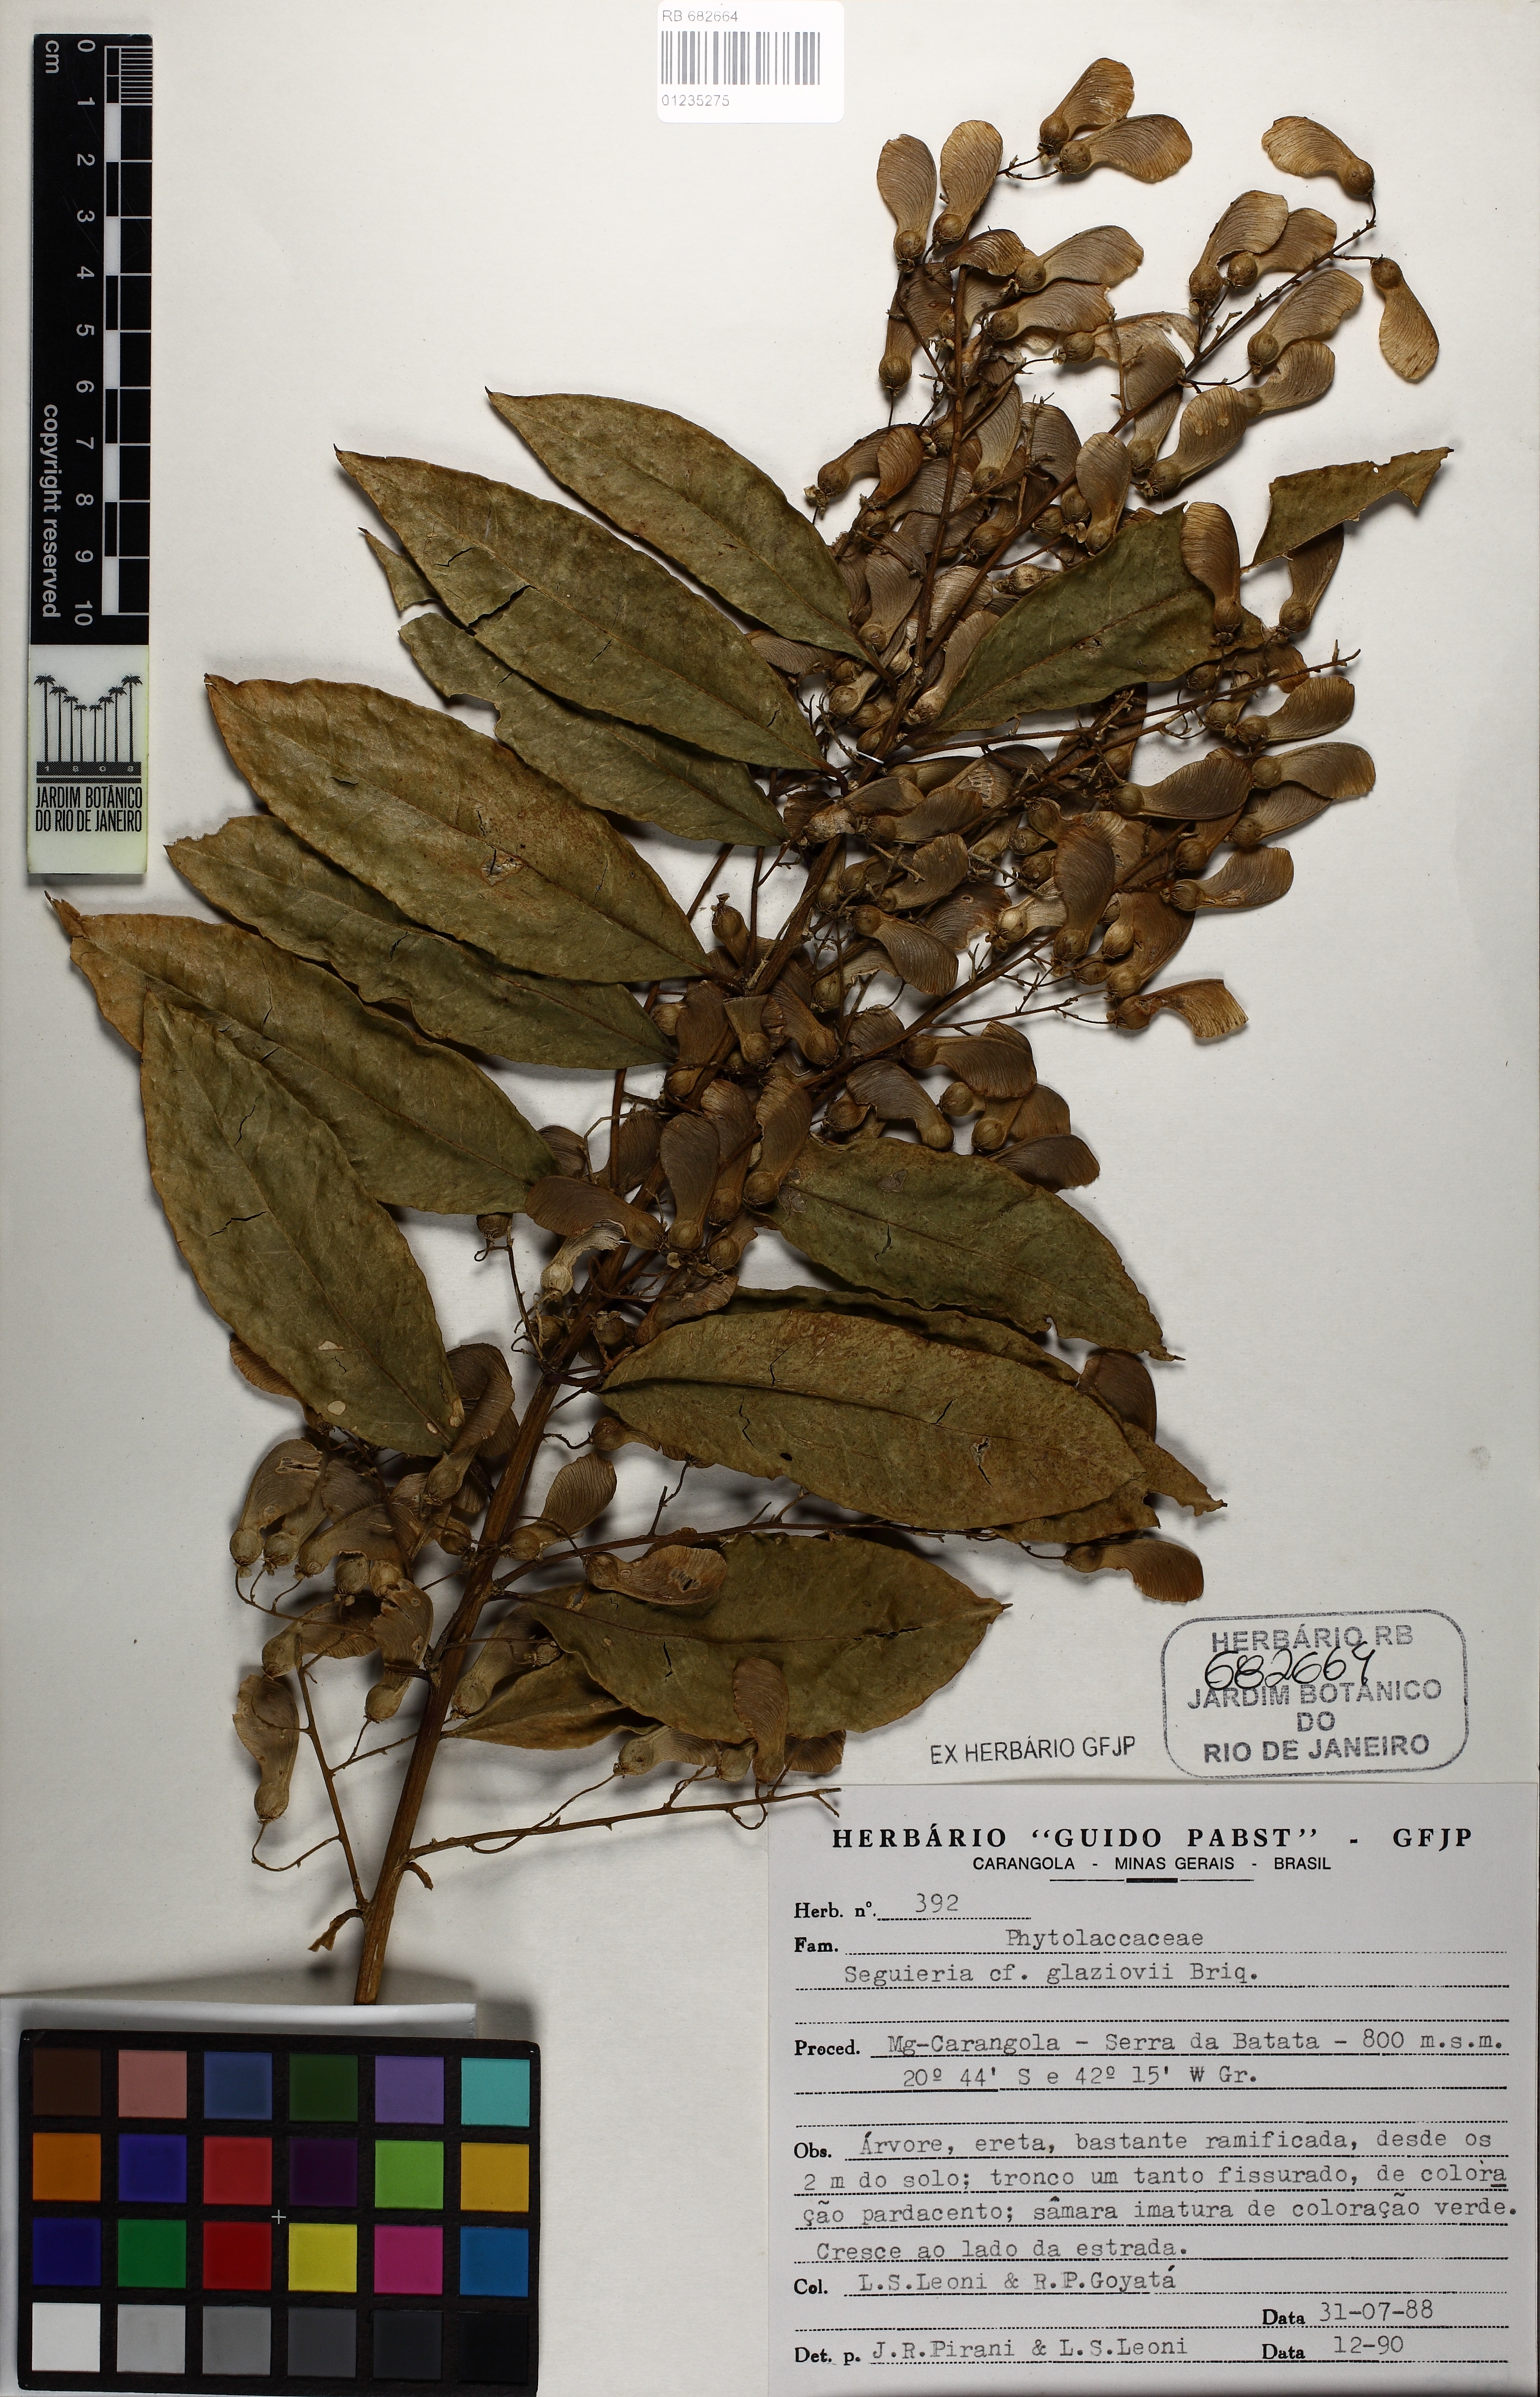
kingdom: Plantae
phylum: Tracheophyta
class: Magnoliopsida
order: Caryophyllales
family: Phytolaccaceae
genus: Seguieria
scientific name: Seguieria langsdorffii
